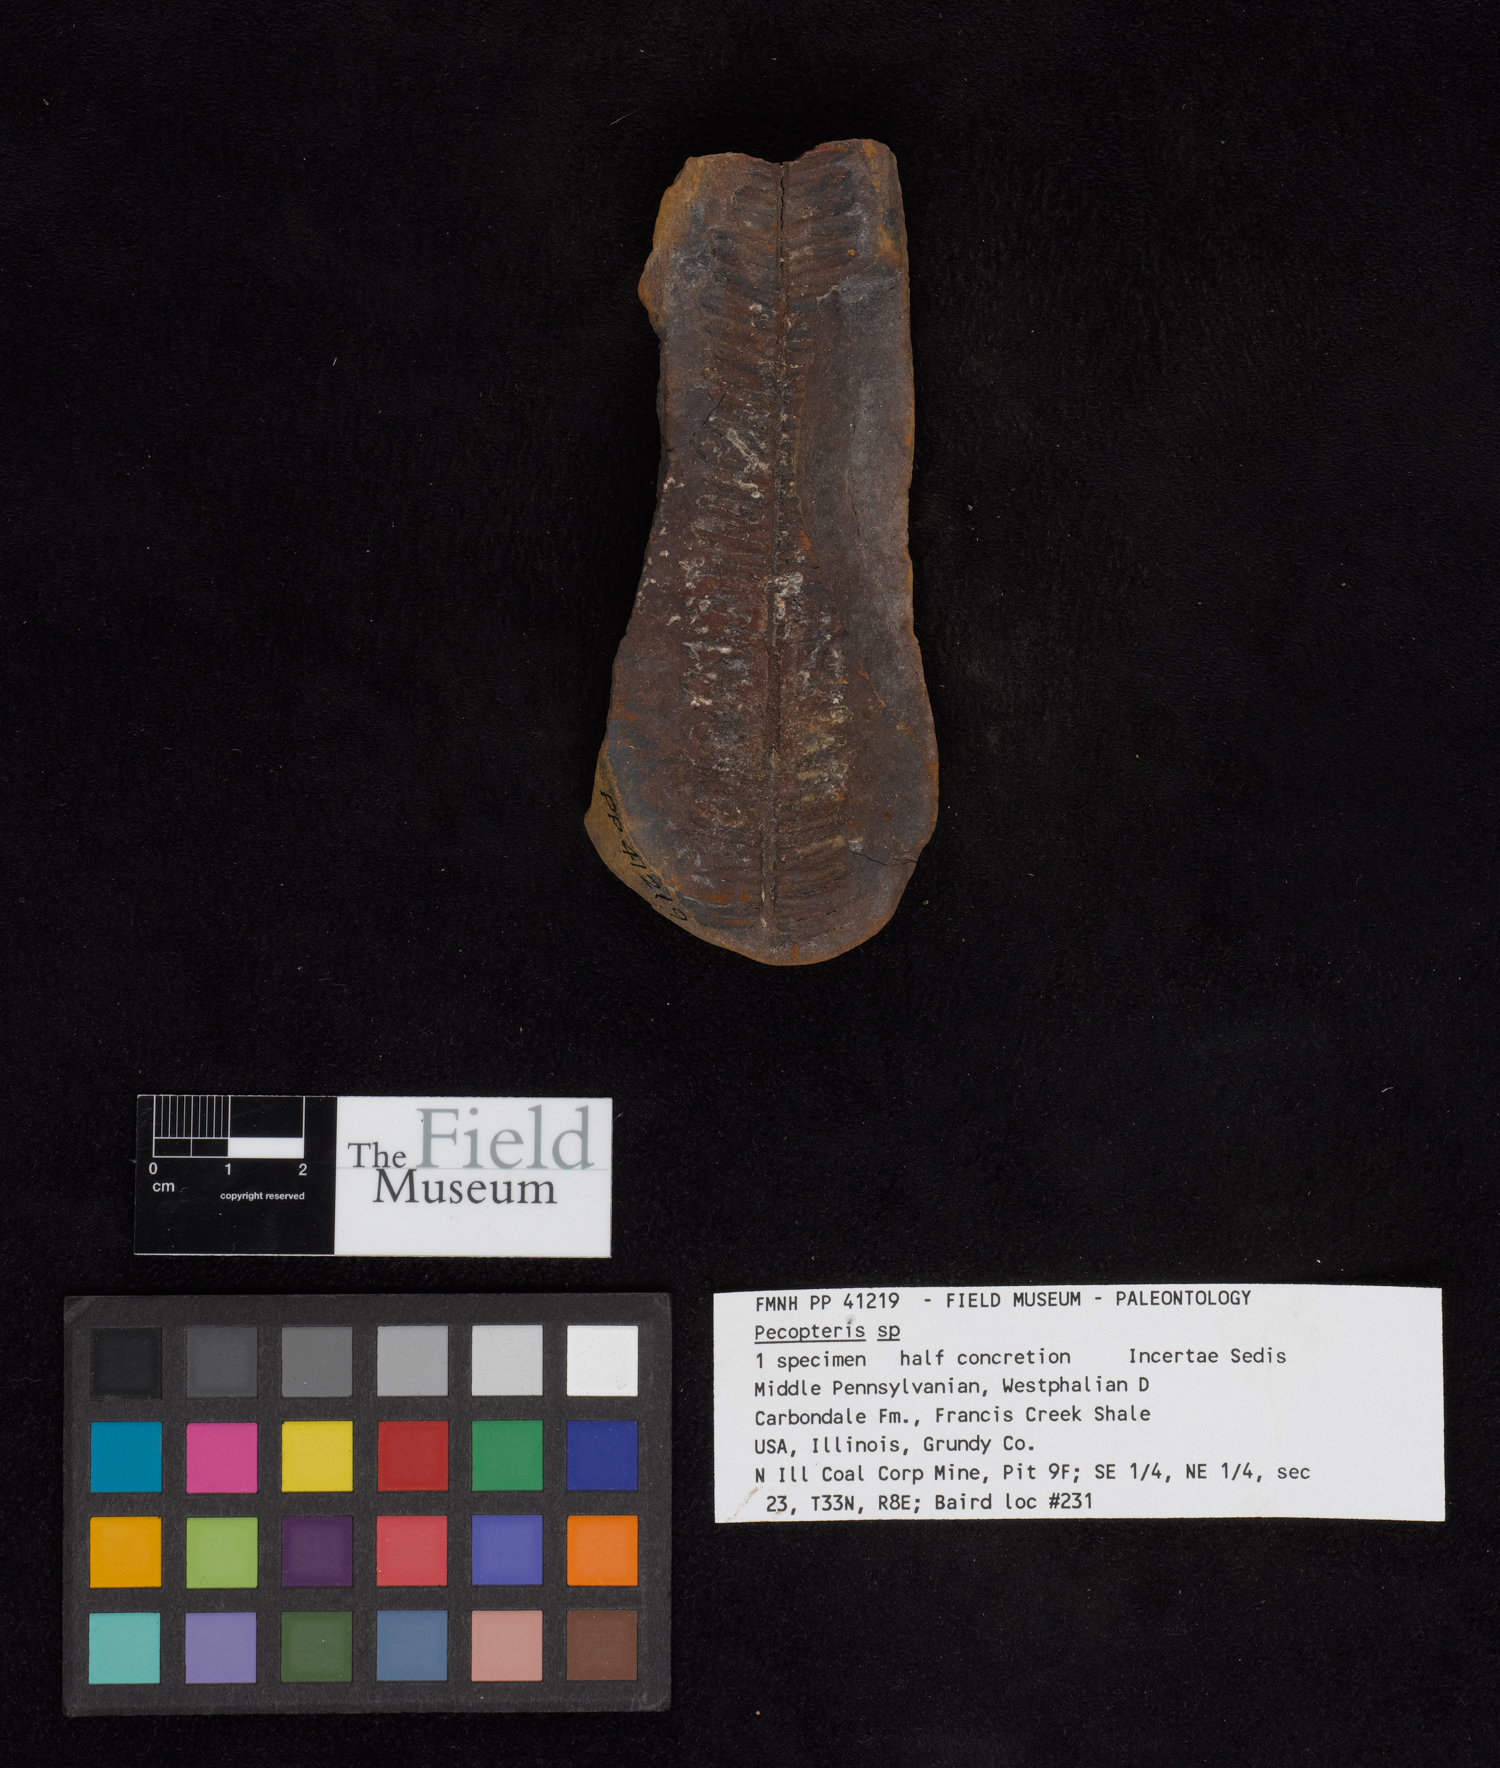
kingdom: Plantae
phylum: Tracheophyta
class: Polypodiopsida
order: Marattiales
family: Asterothecaceae
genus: Pecopteris
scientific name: Pecopteris
